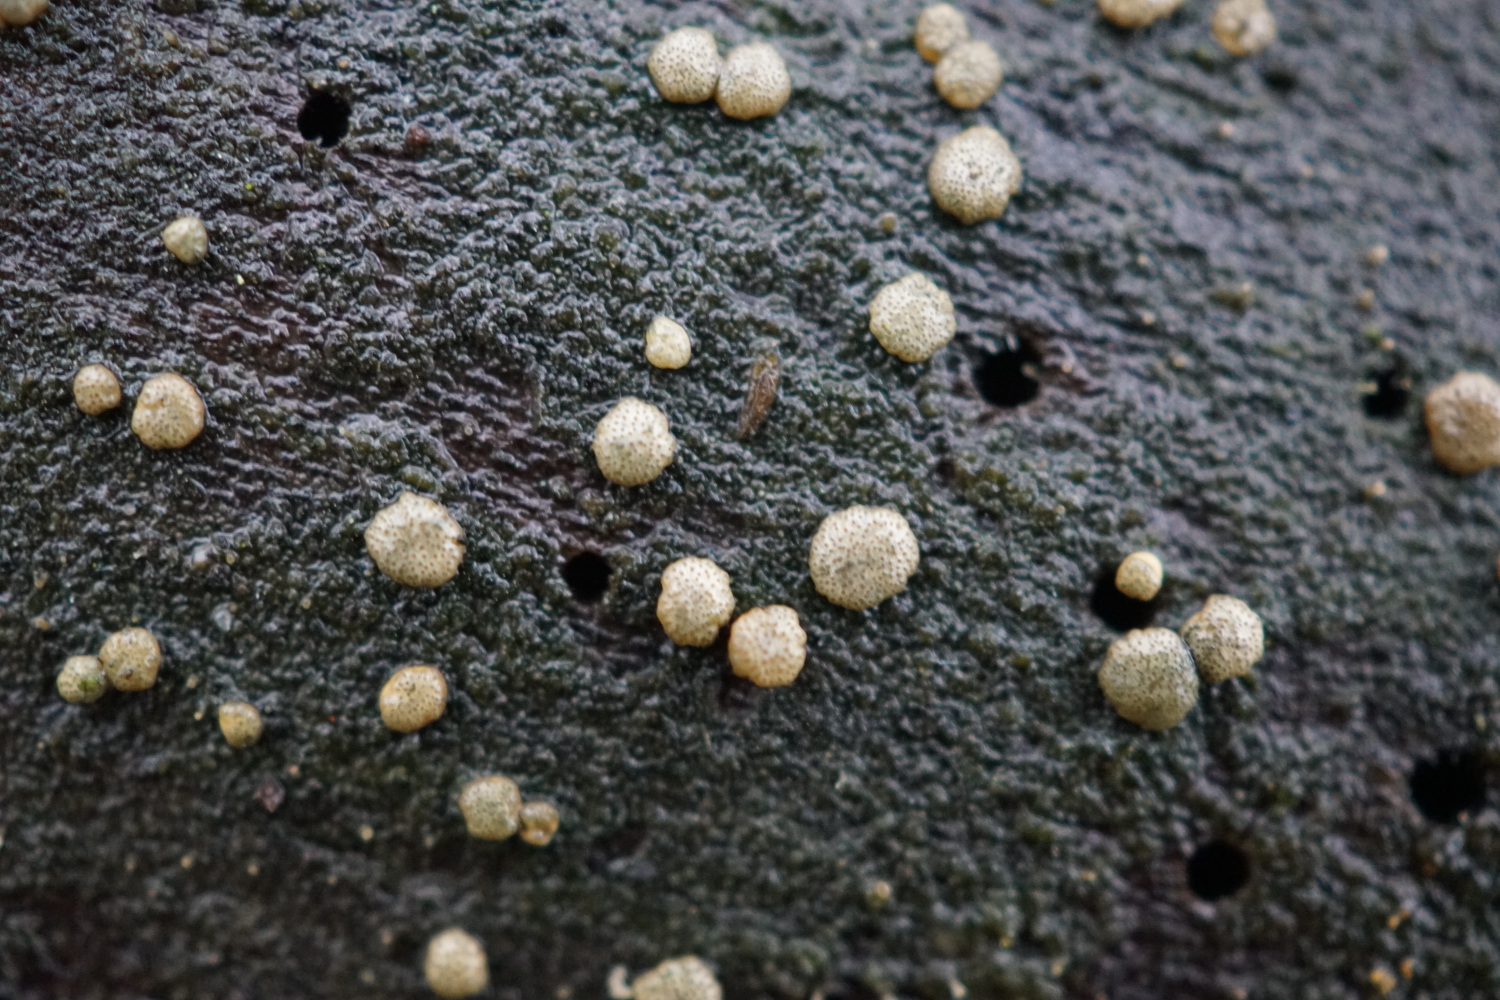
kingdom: Fungi
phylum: Ascomycota
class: Sordariomycetes
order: Hypocreales
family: Hypocreaceae
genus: Trichoderma
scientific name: Trichoderma strictipile
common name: grønprikket kødkerne
